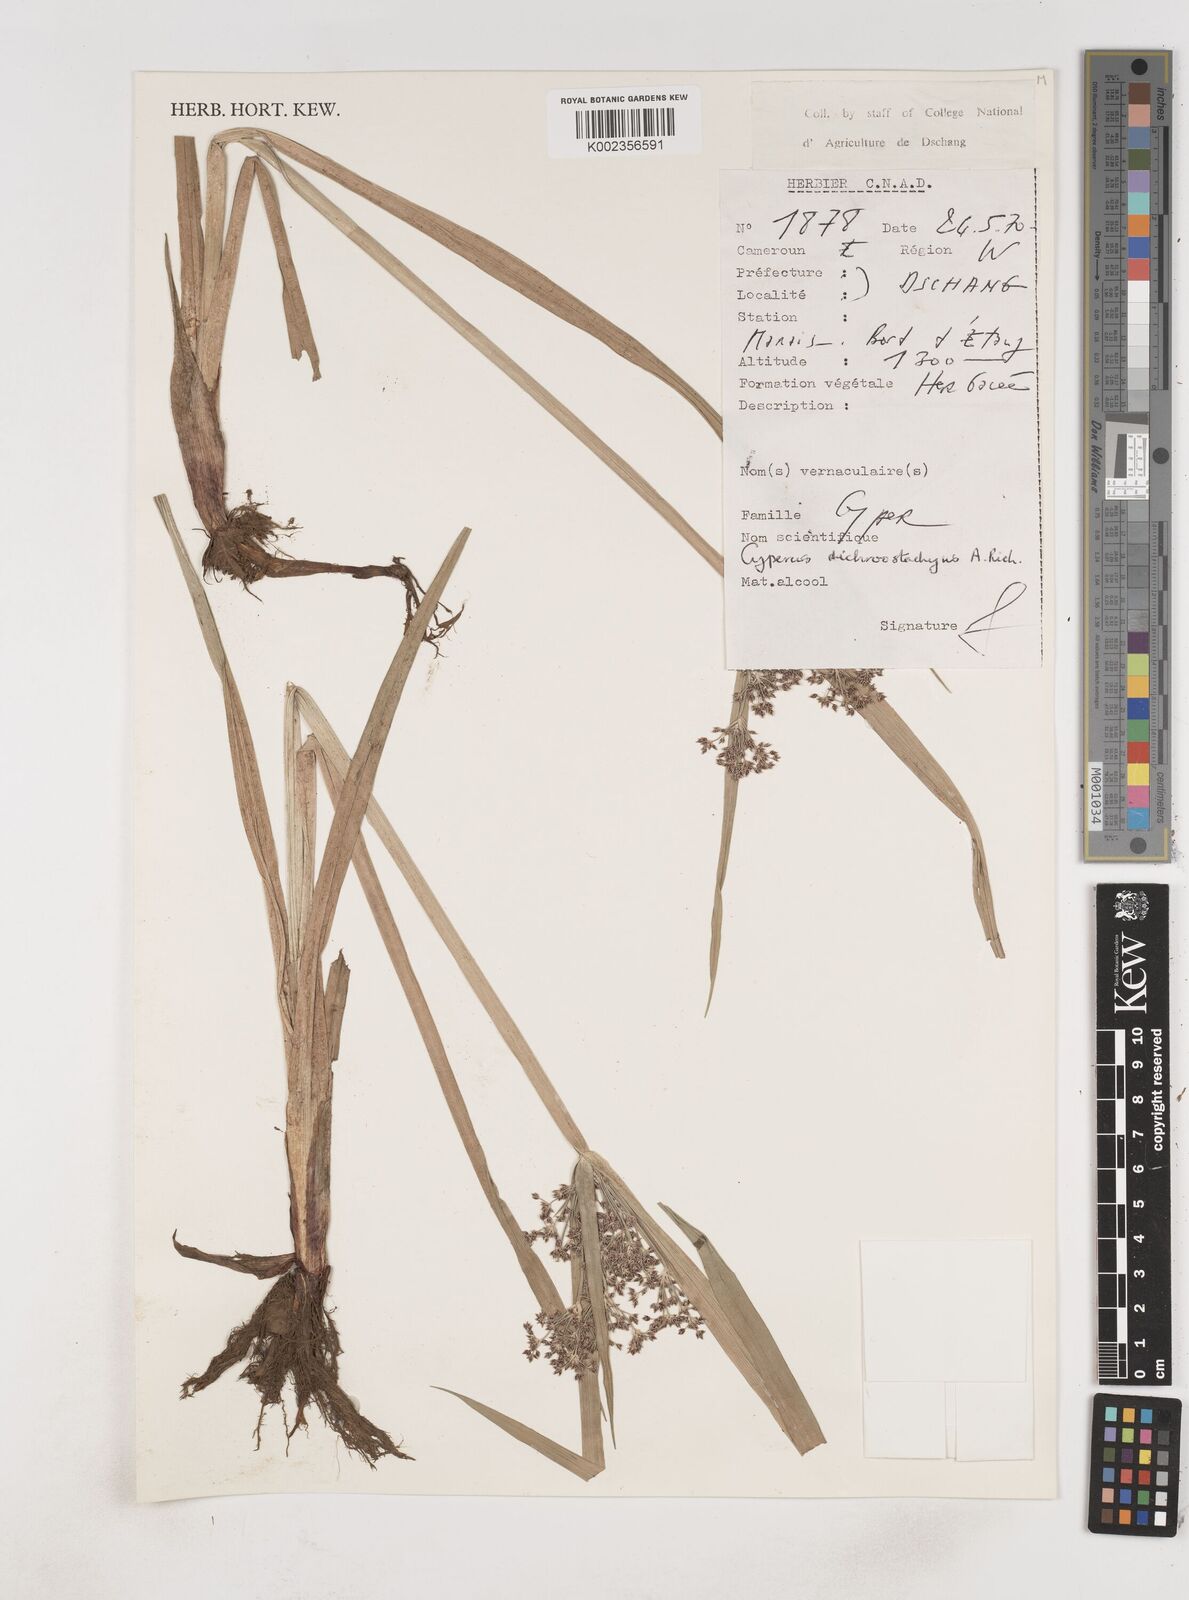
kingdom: Plantae
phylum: Tracheophyta
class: Liliopsida
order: Poales
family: Cyperaceae
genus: Cyperus
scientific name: Cyperus dichrostachyus
